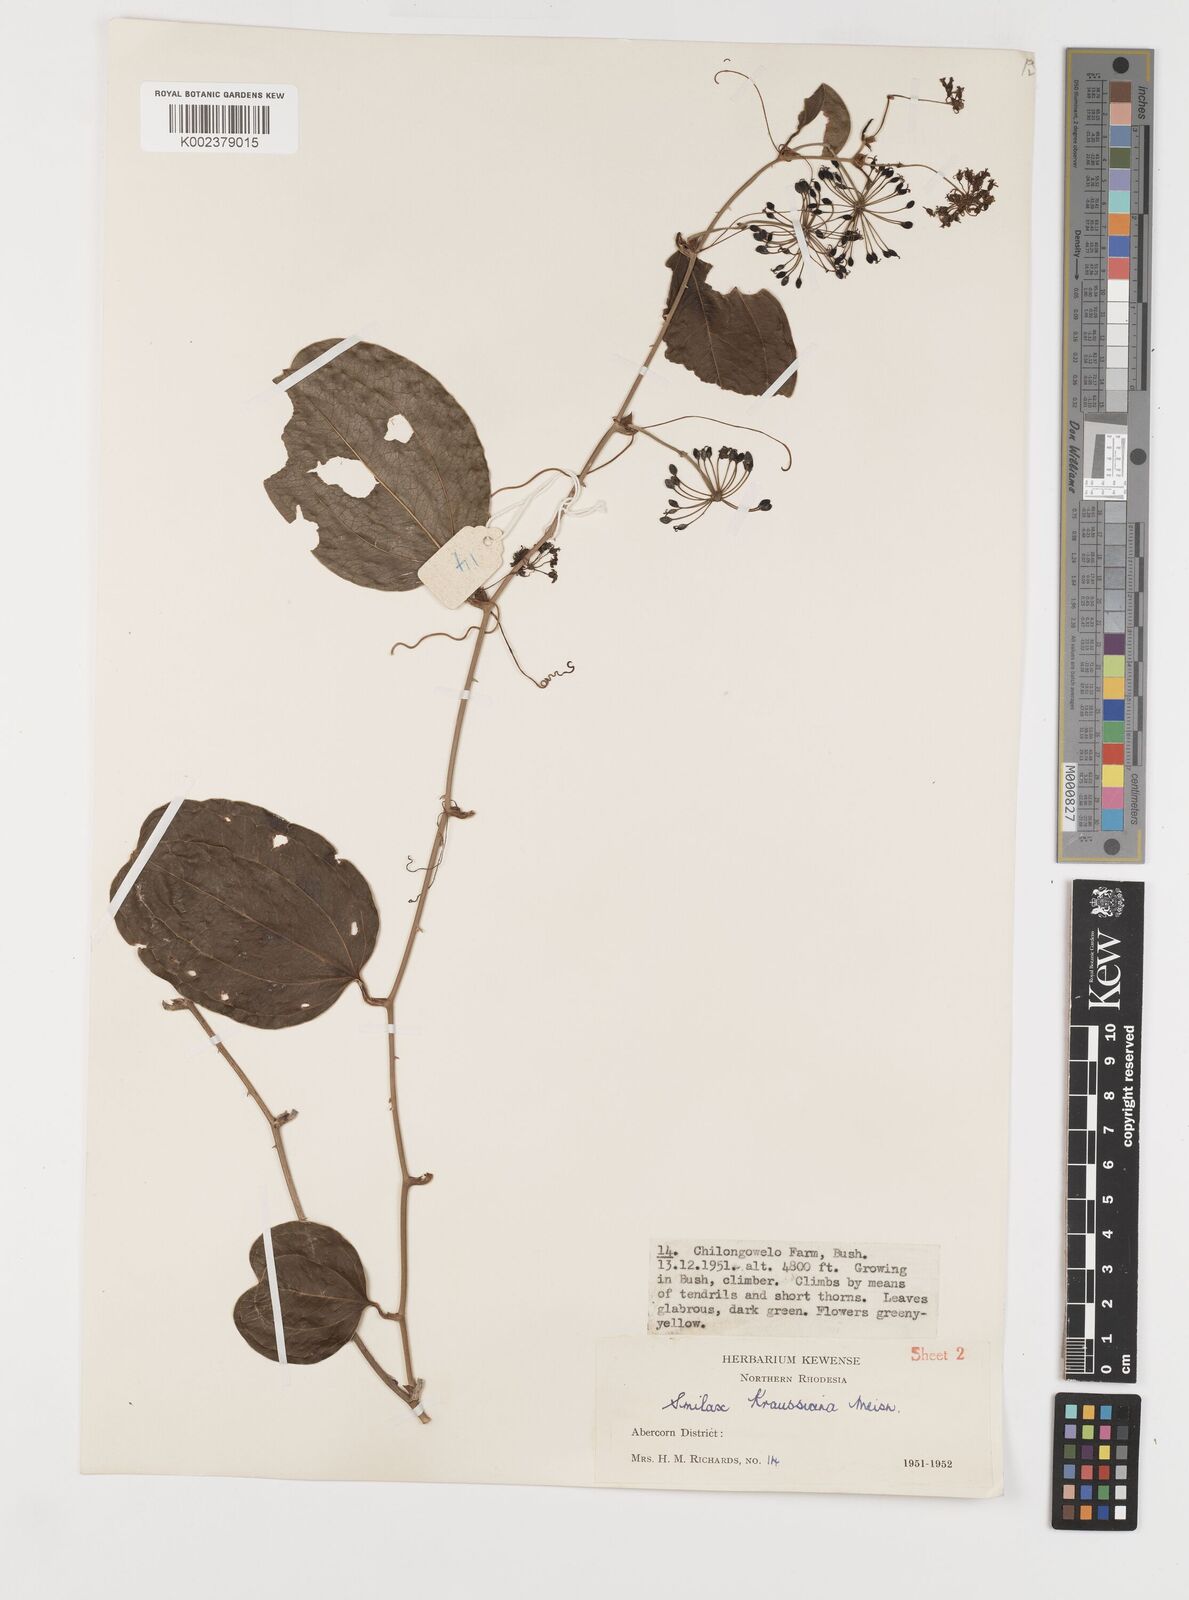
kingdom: Plantae
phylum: Tracheophyta
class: Liliopsida
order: Liliales
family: Smilacaceae
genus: Smilax
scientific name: Smilax anceps
